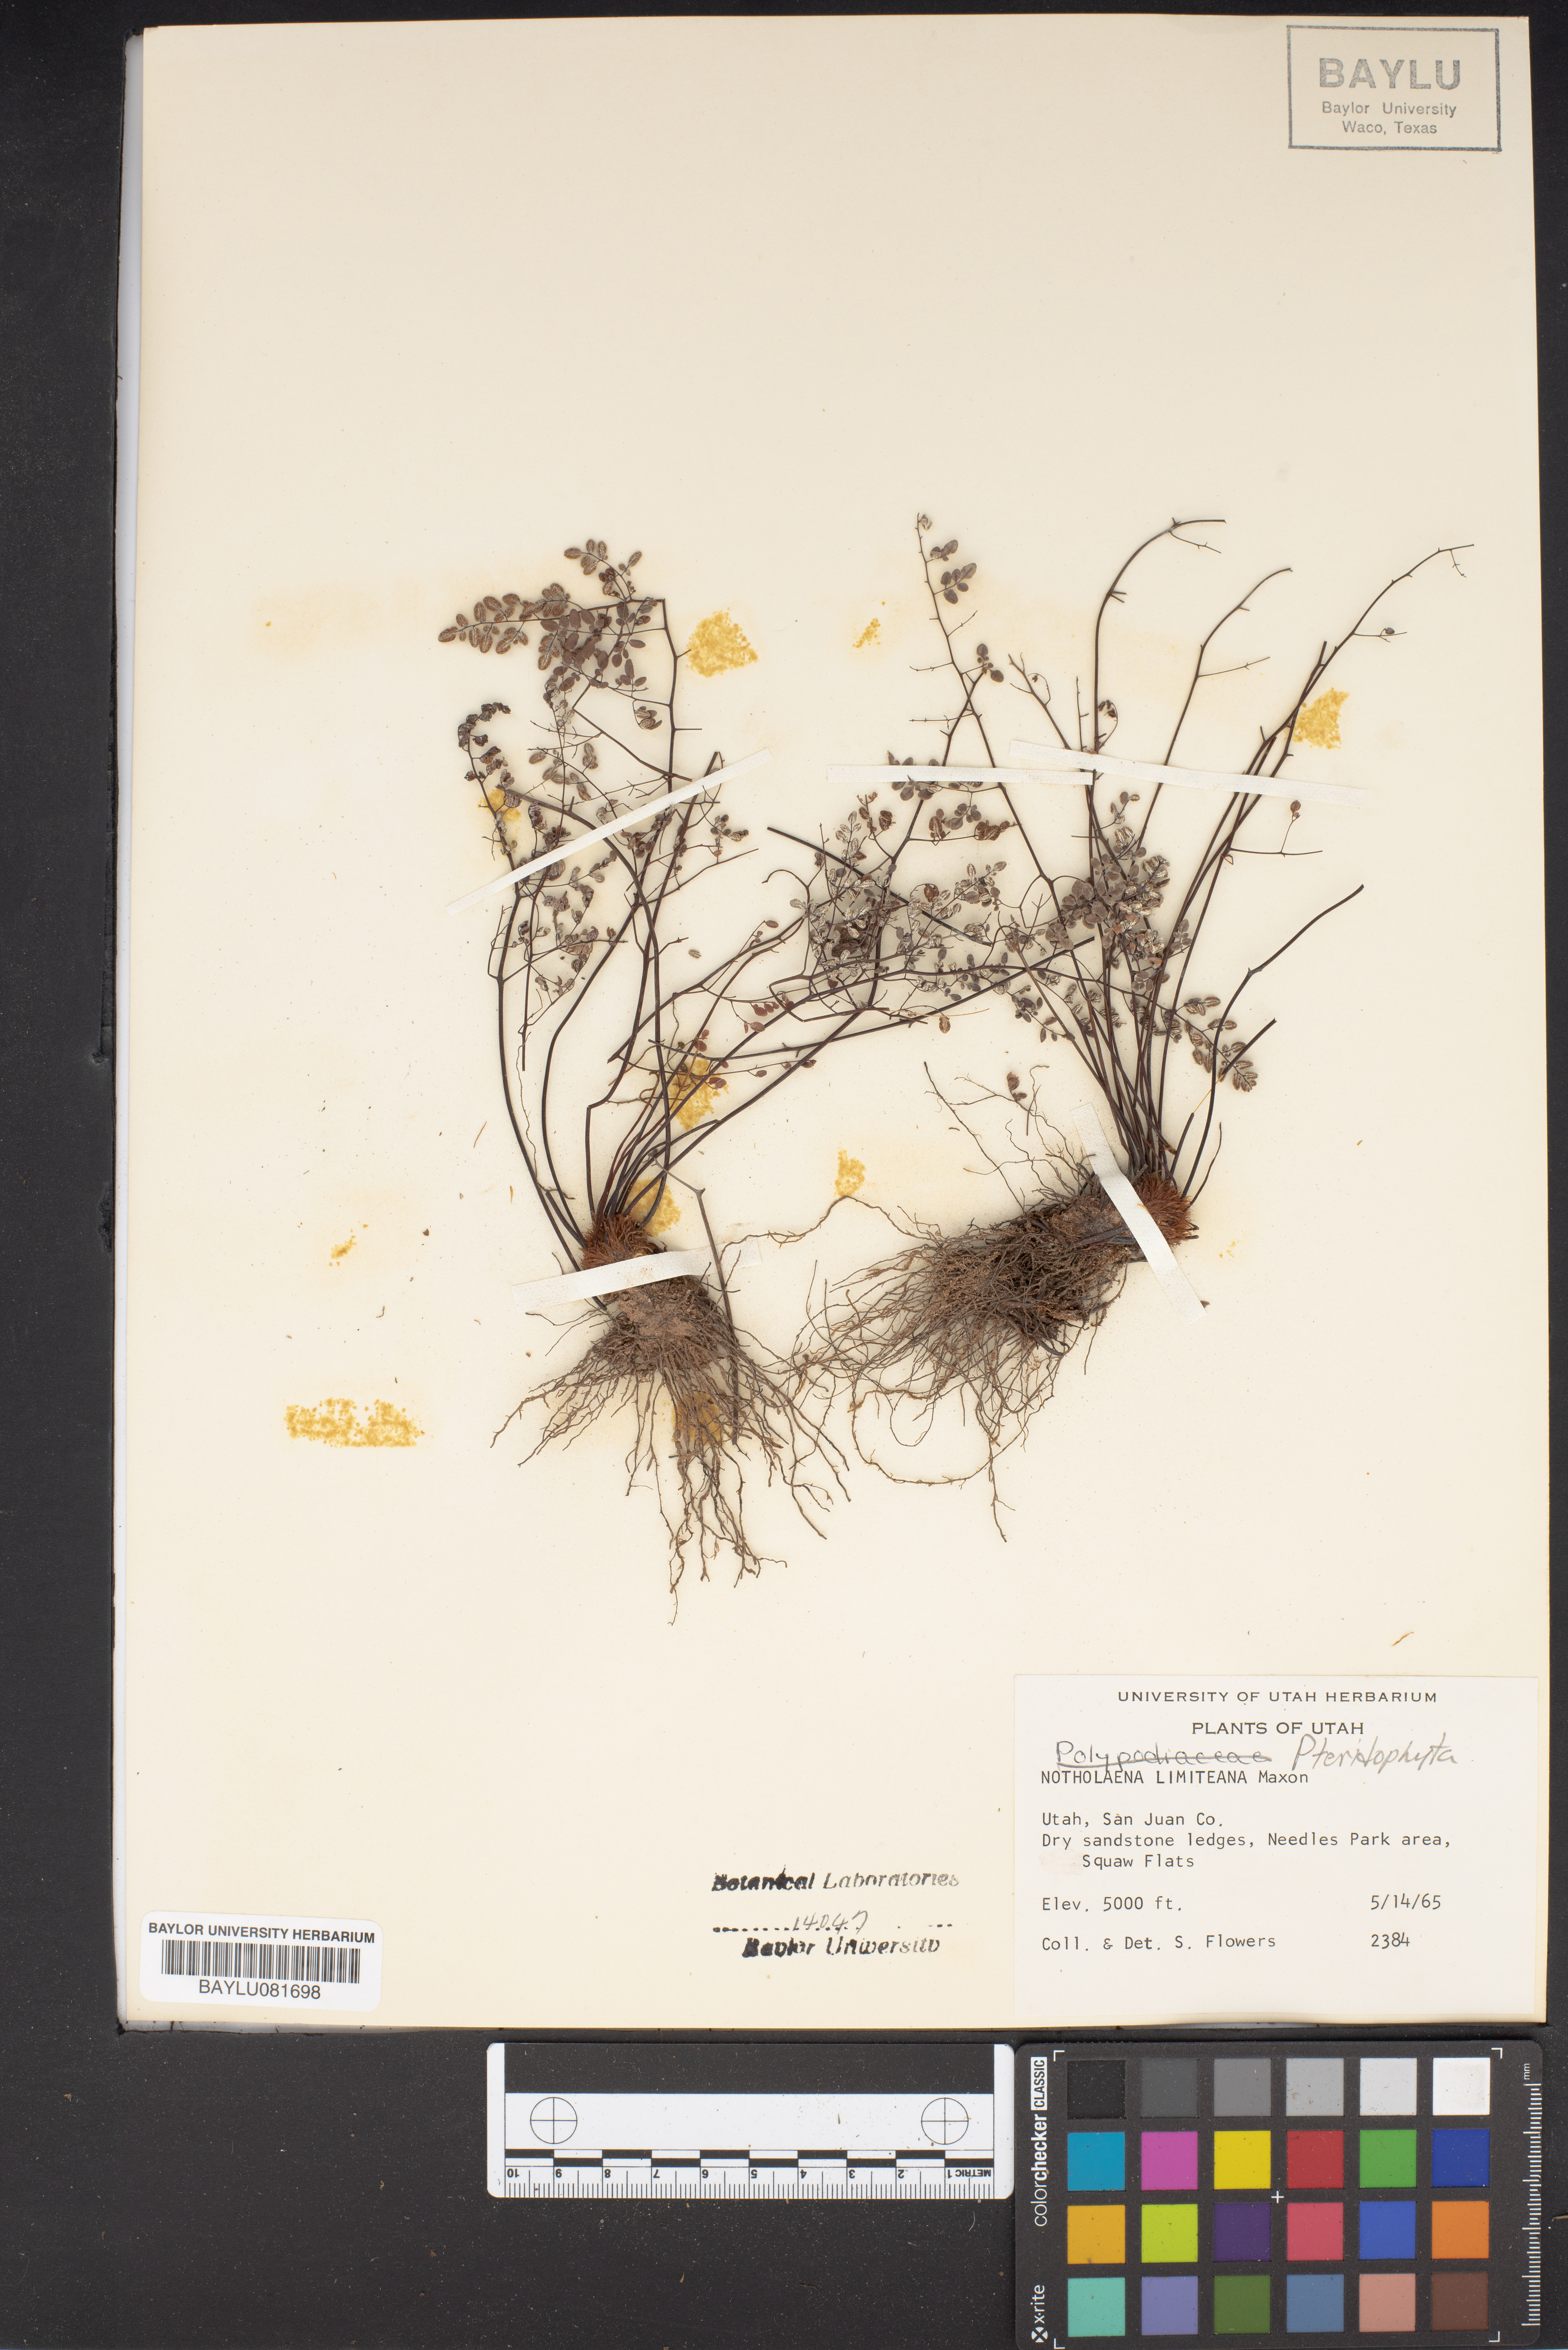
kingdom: Plantae
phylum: Tracheophyta
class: Polypodiopsida
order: Polypodiales
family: Pteridaceae
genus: Argyrochosma
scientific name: Argyrochosma limitanea
